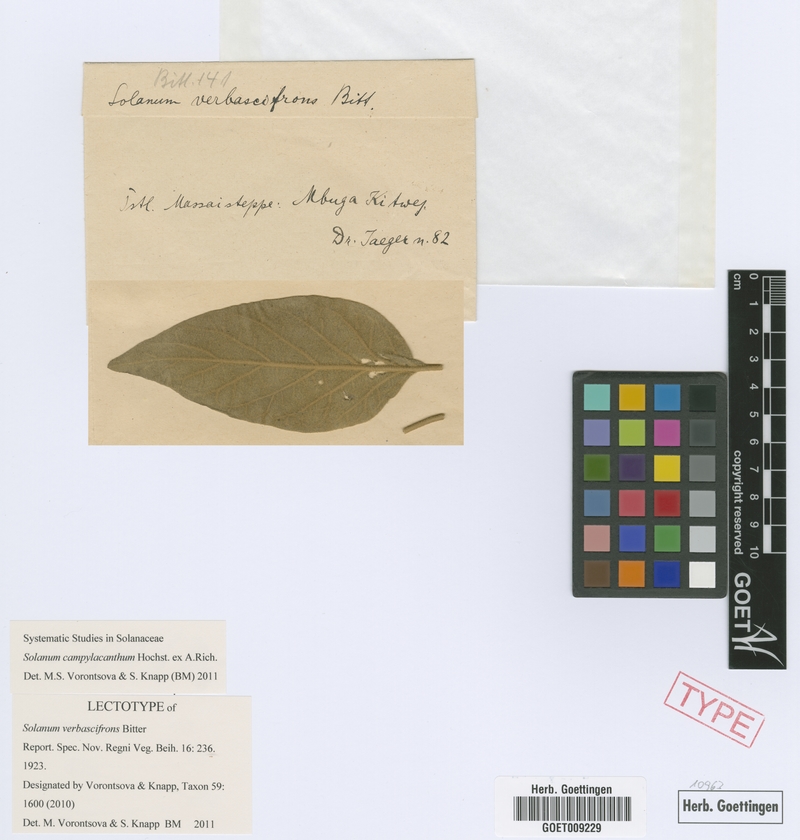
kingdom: Plantae
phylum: Tracheophyta
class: Magnoliopsida
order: Solanales
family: Solanaceae
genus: Solanum
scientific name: Solanum campylacanthum
